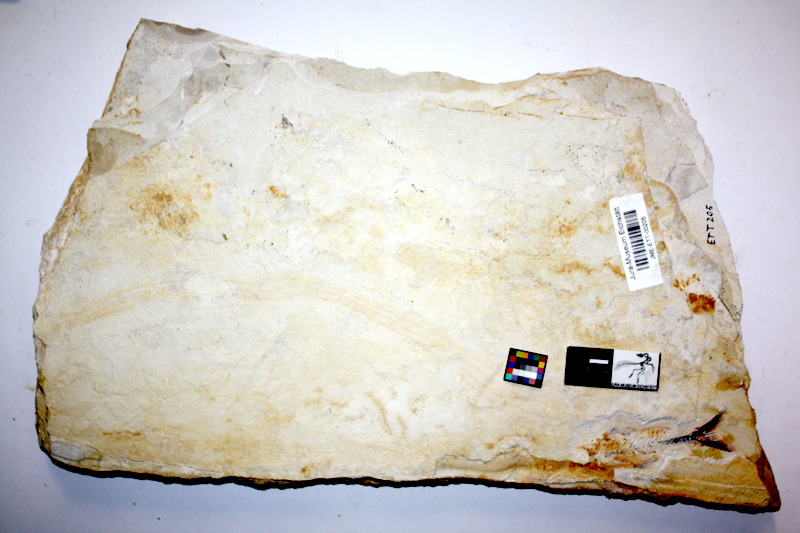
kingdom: Animalia
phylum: Chordata
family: Allothrissopidae
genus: Allothrissops
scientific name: Allothrissops mesogaster
